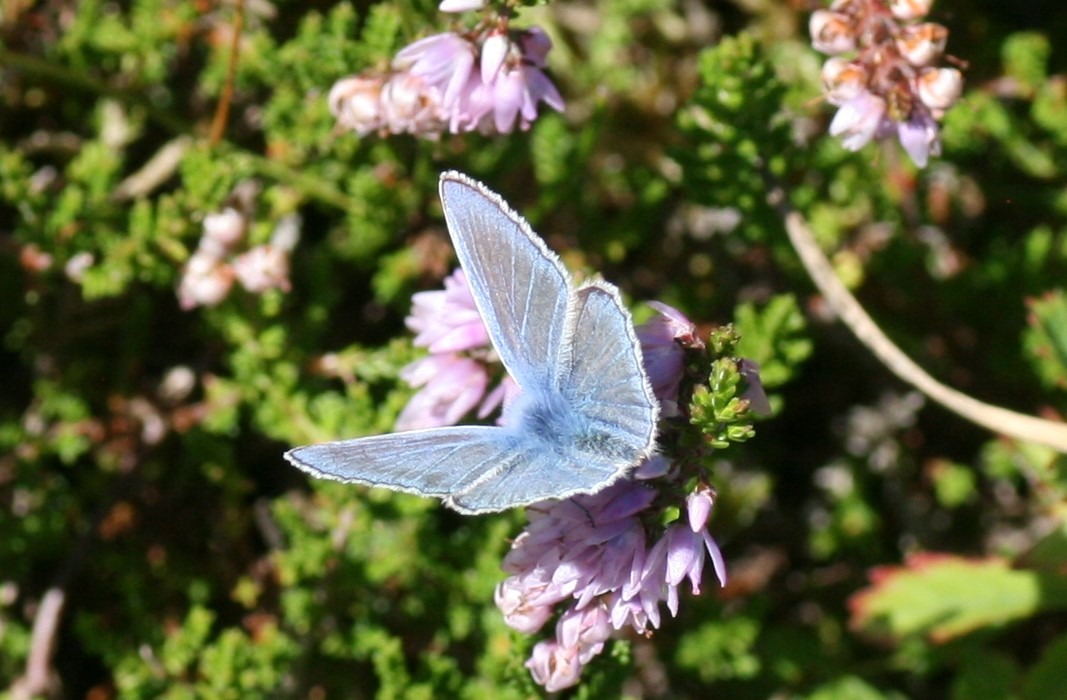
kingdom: Animalia
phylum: Arthropoda
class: Insecta
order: Lepidoptera
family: Lycaenidae
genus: Polyommatus
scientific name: Polyommatus icarus
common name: Almindelig blåfugl
